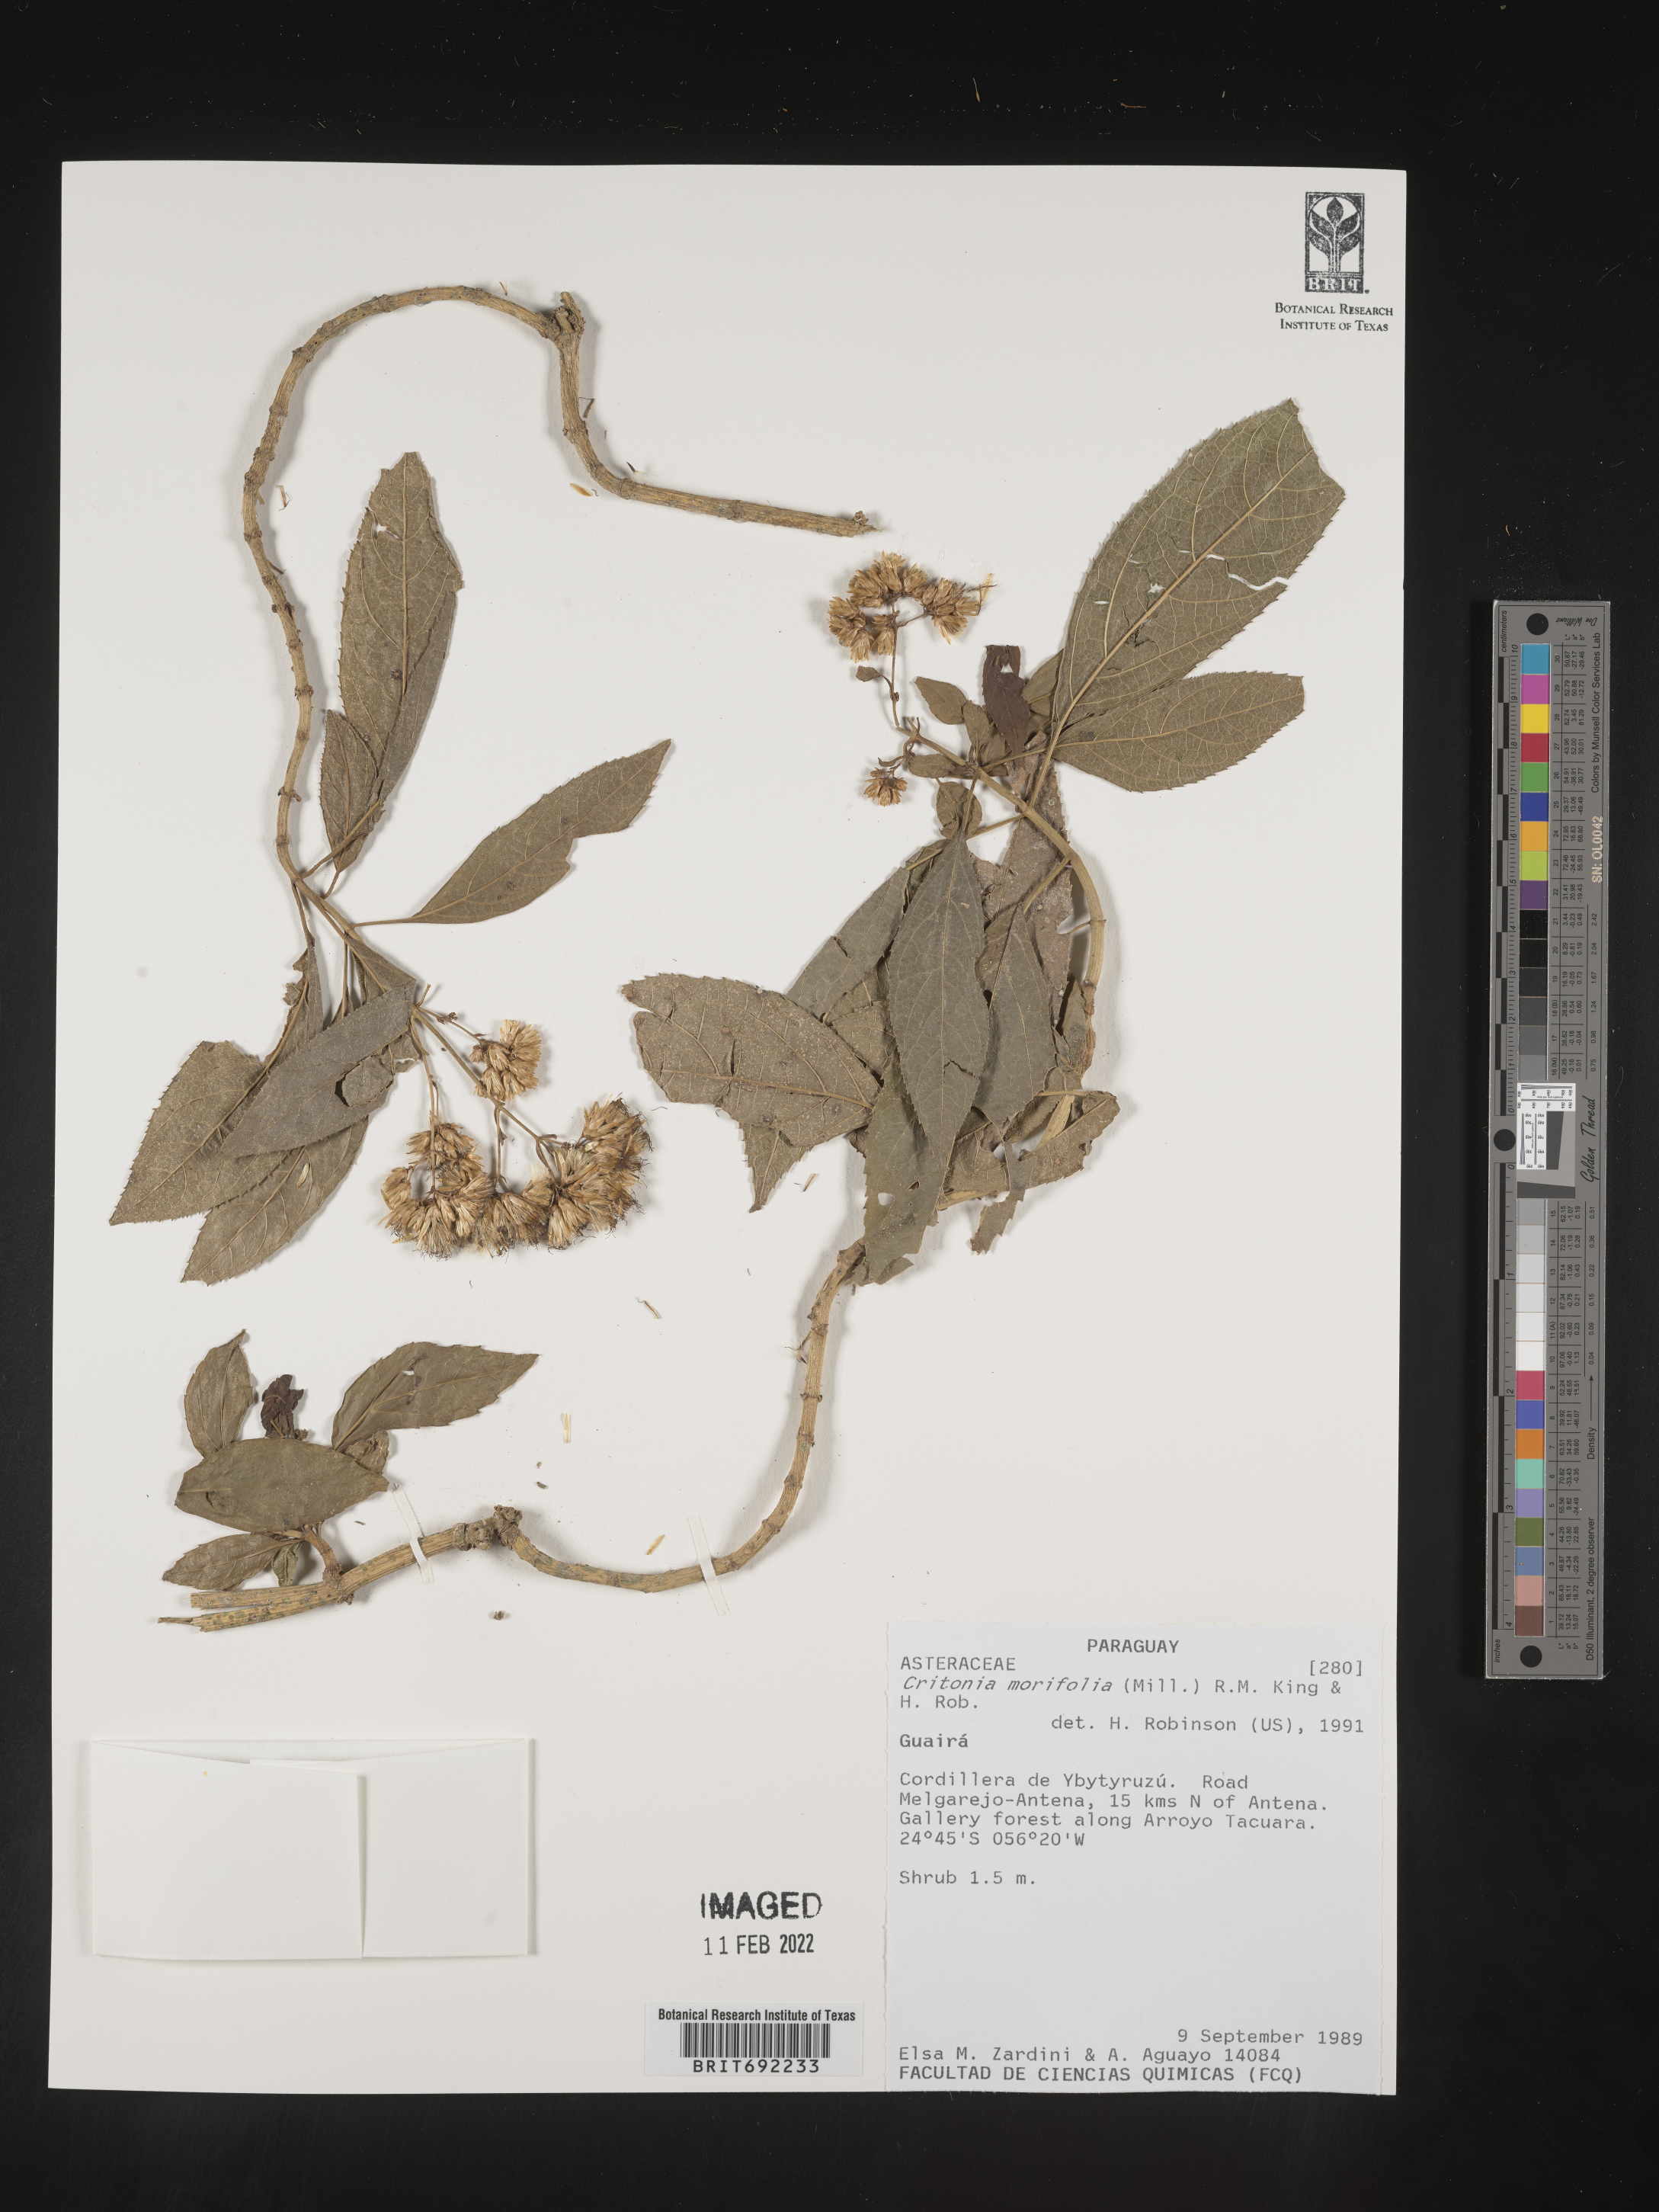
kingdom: Plantae
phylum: Tracheophyta
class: Magnoliopsida
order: Asterales
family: Asteraceae
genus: Critonia
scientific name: Critonia
